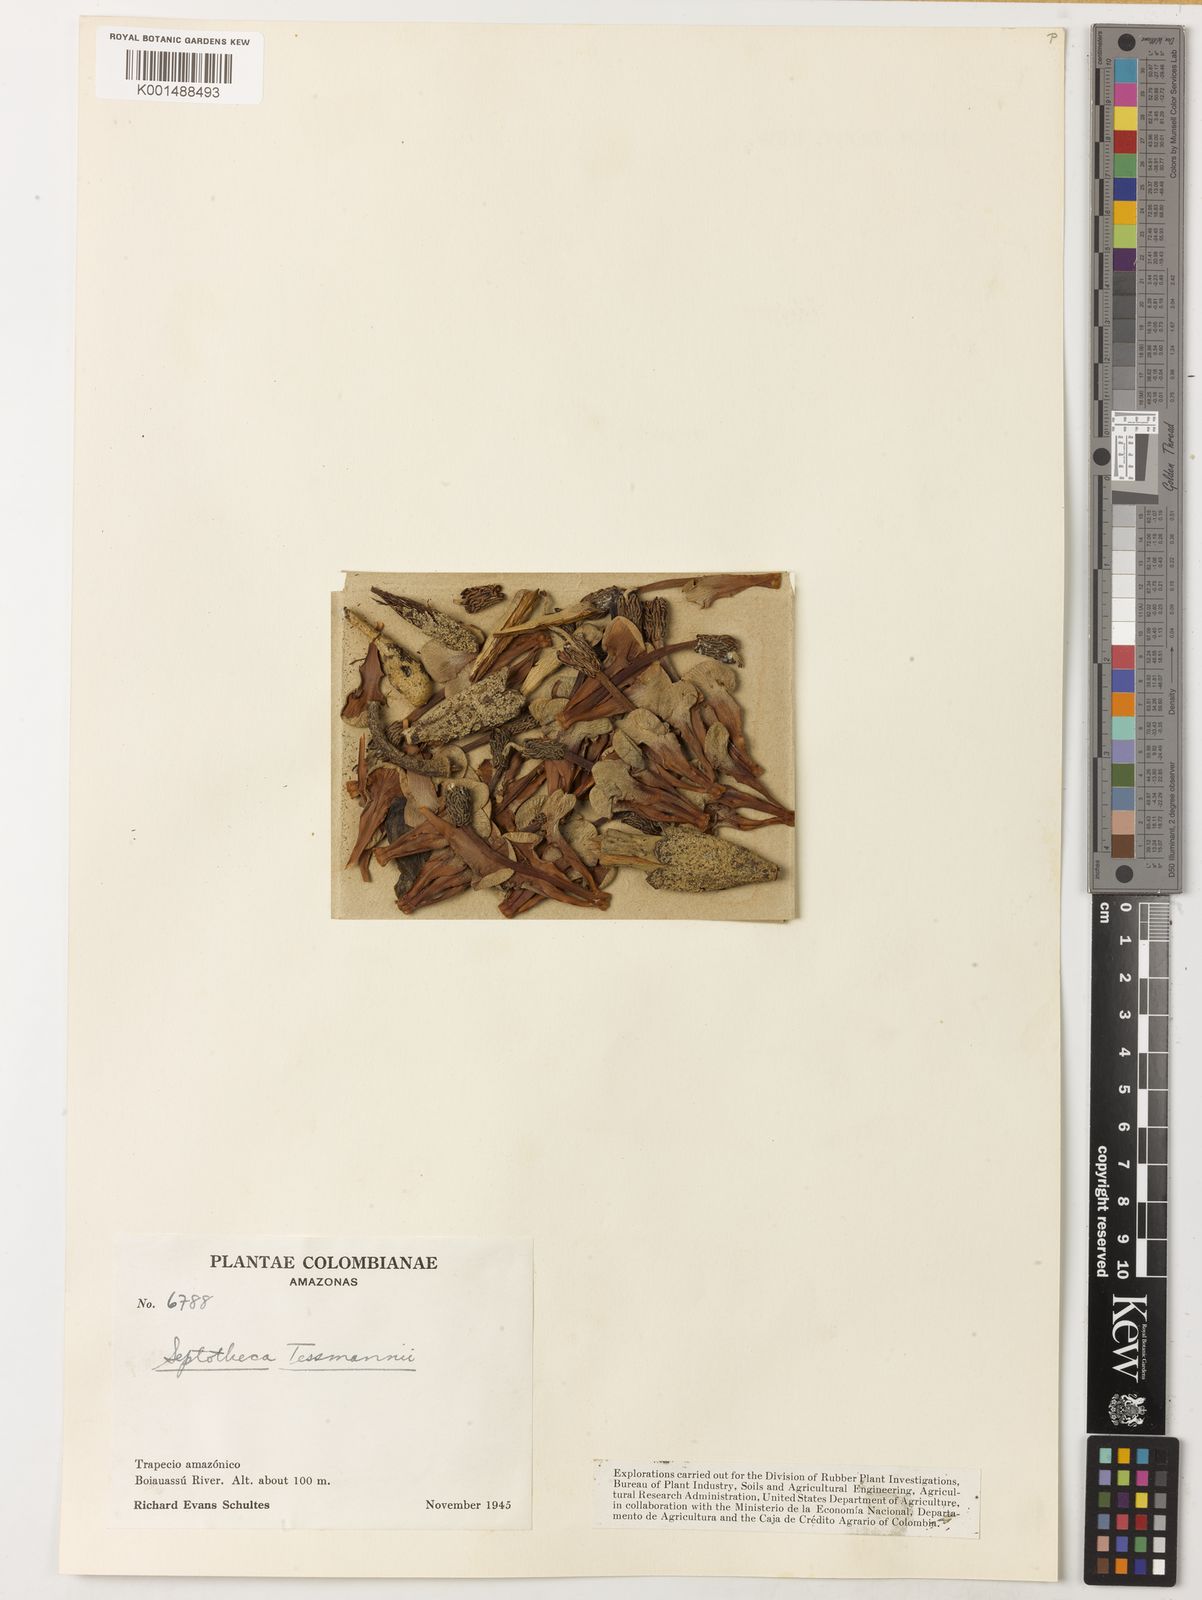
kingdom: Plantae
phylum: Tracheophyta
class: Magnoliopsida
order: Malvales
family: Malvaceae
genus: Septotheca
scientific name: Septotheca tessmannii
